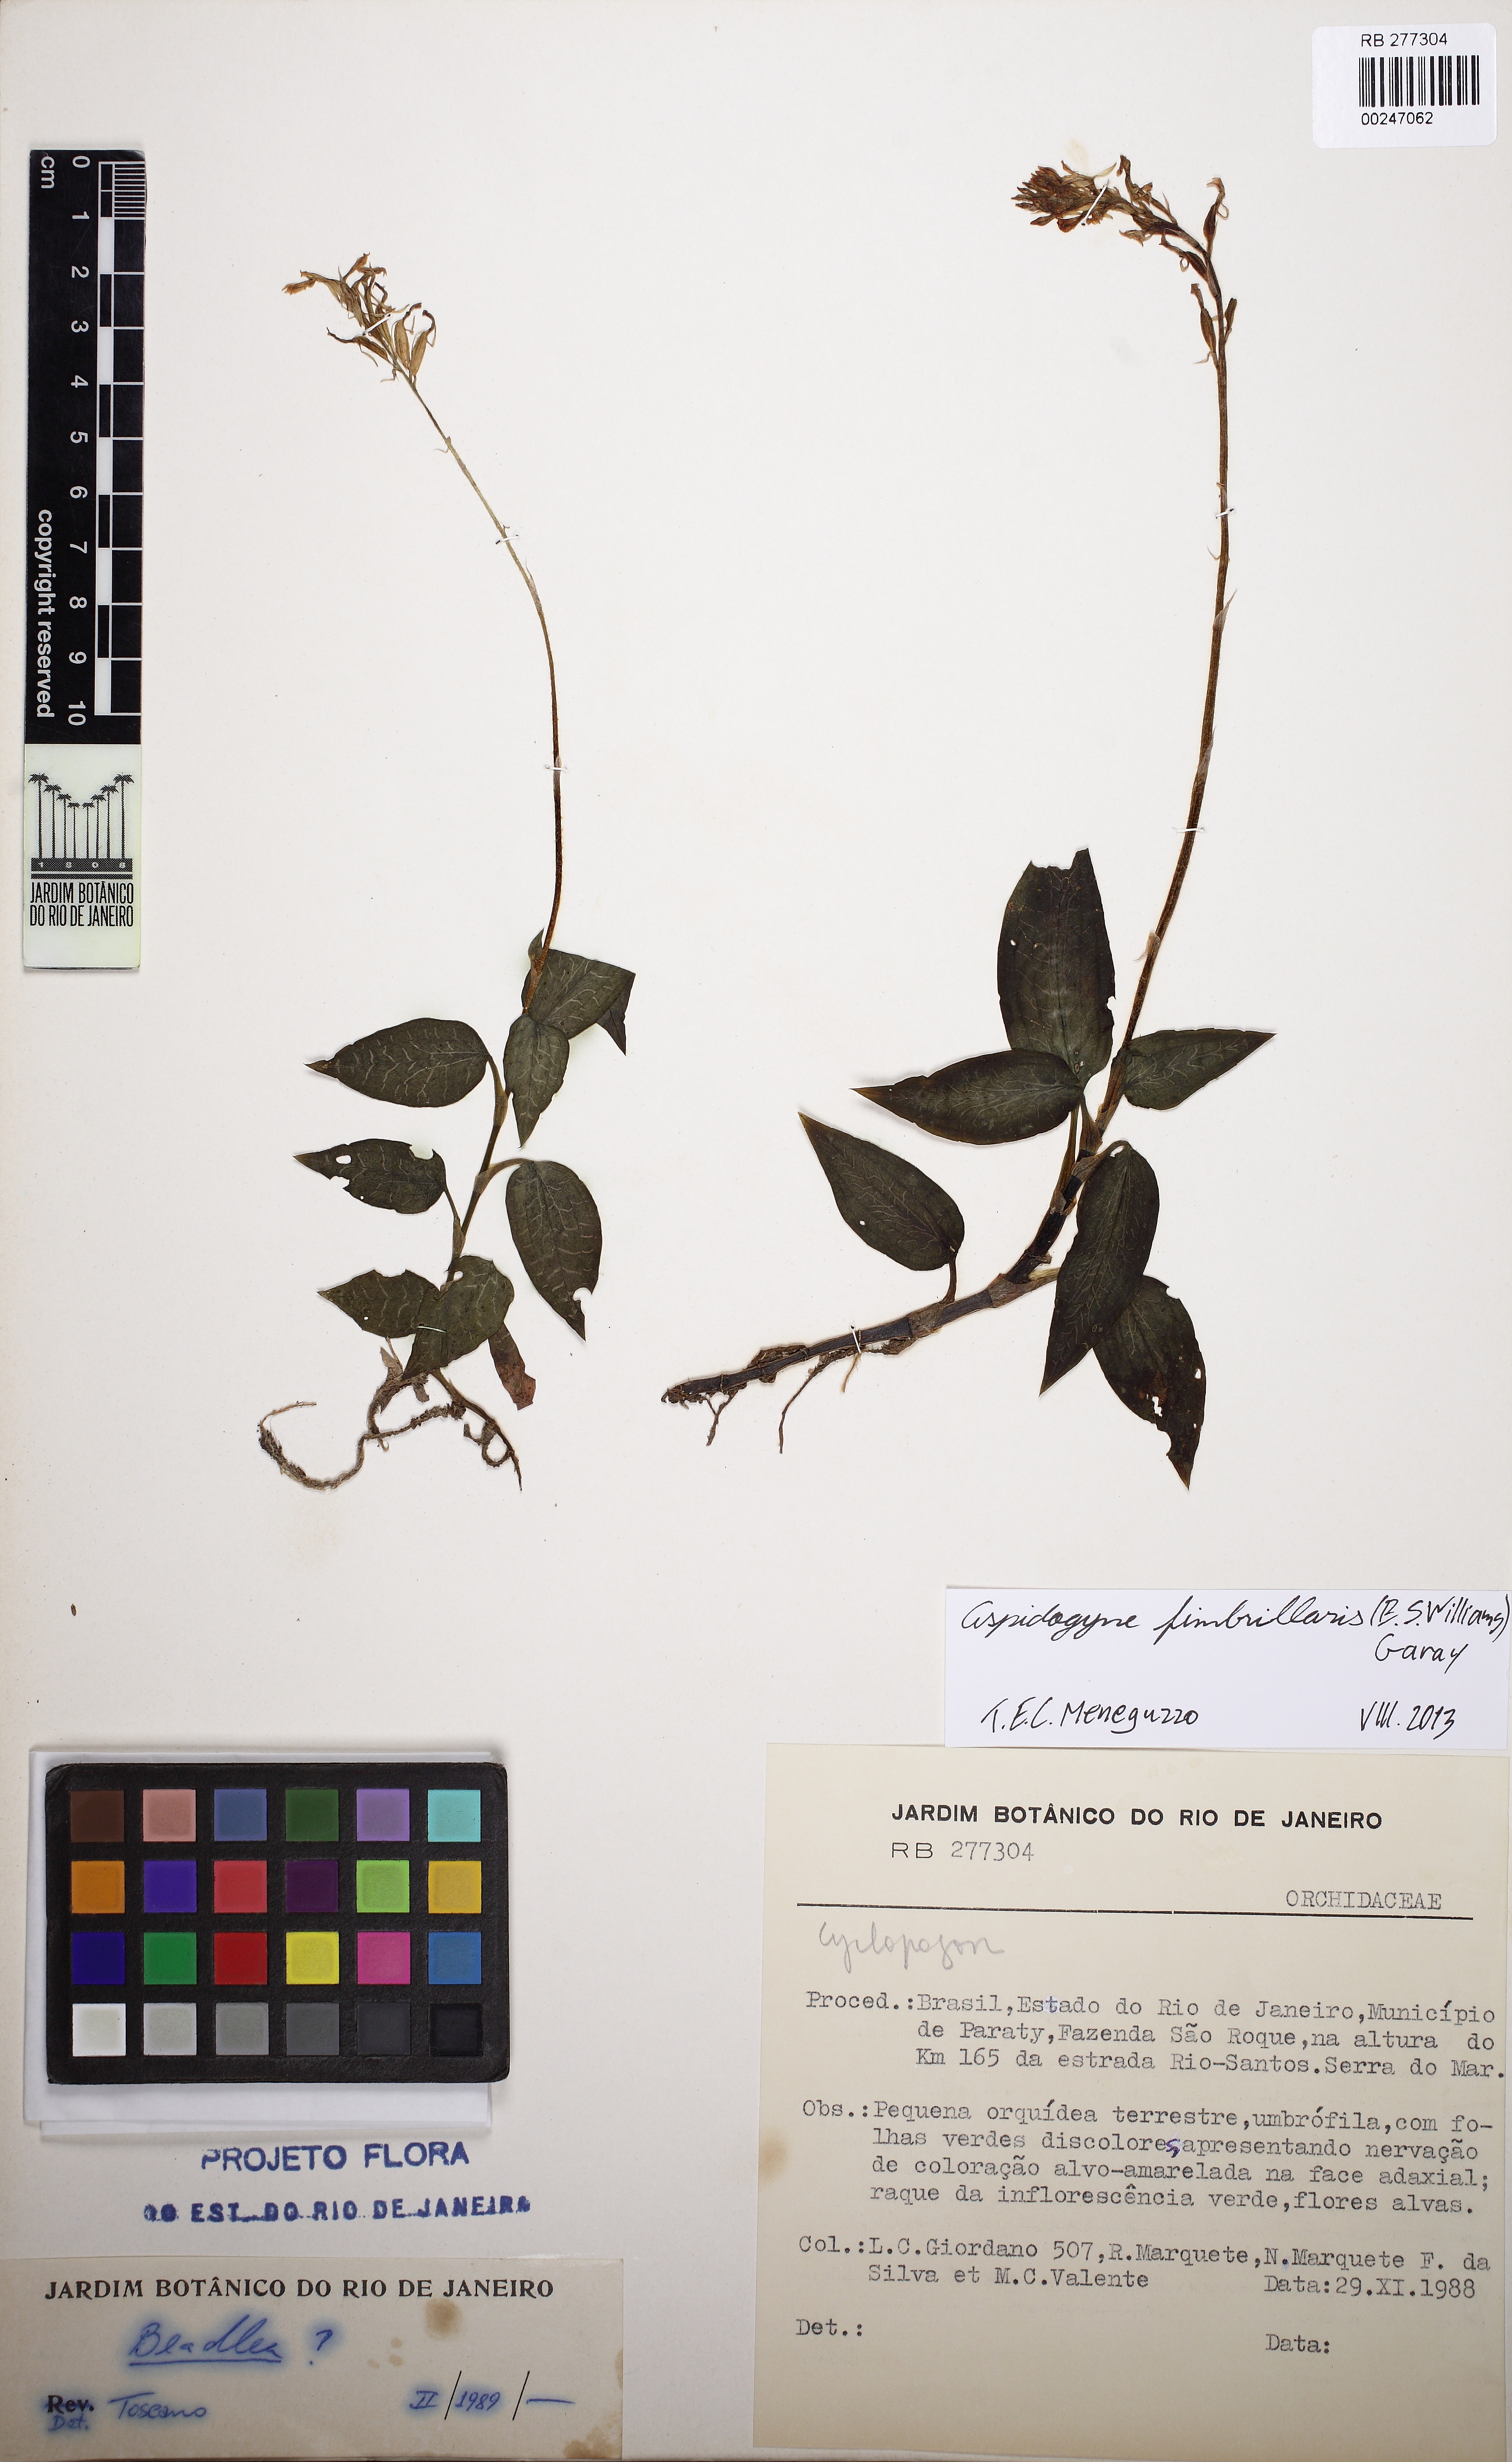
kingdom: Plantae
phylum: Tracheophyta
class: Liliopsida
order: Asparagales
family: Orchidaceae
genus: Aspidogyne
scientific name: Aspidogyne fimbrillaris
